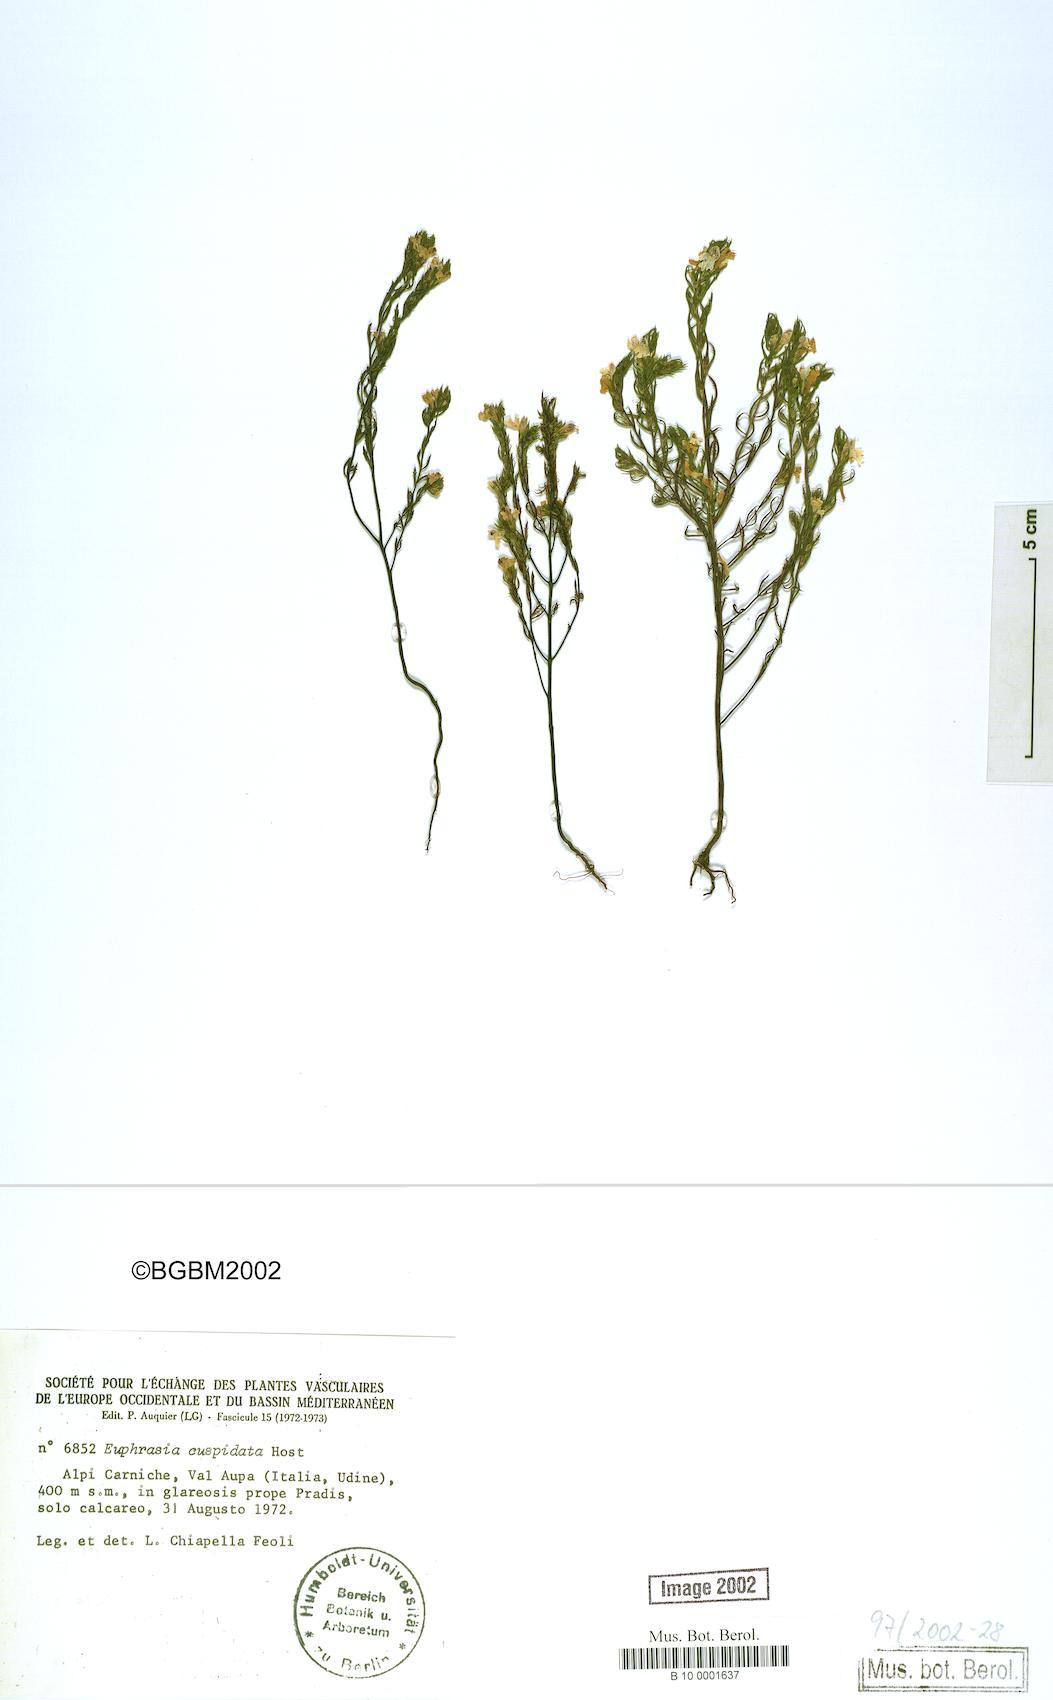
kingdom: Plantae
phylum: Tracheophyta
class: Magnoliopsida
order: Lamiales
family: Orobanchaceae
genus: Euphrasia
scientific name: Euphrasia cuspidata
